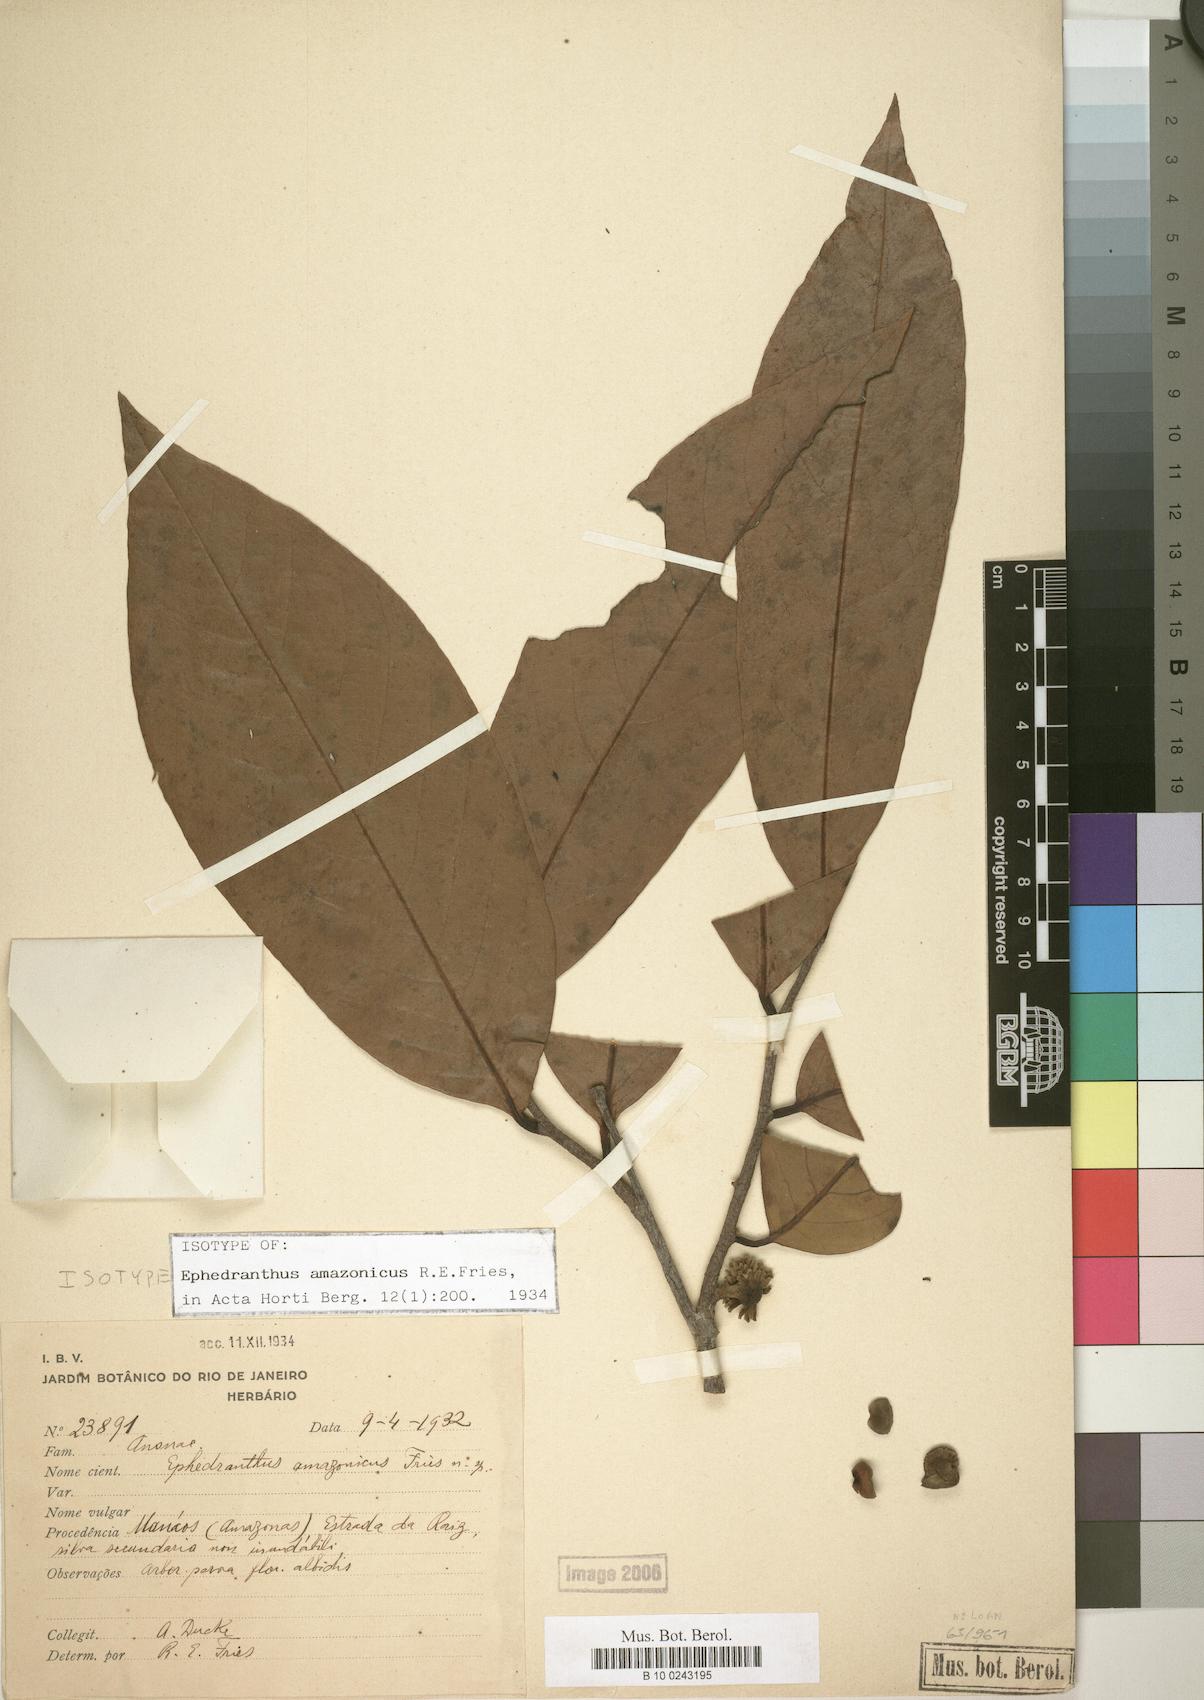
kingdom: Plantae
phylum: Tracheophyta
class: Magnoliopsida
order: Magnoliales
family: Annonaceae
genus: Ephedranthus
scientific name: Ephedranthus amazonicus
